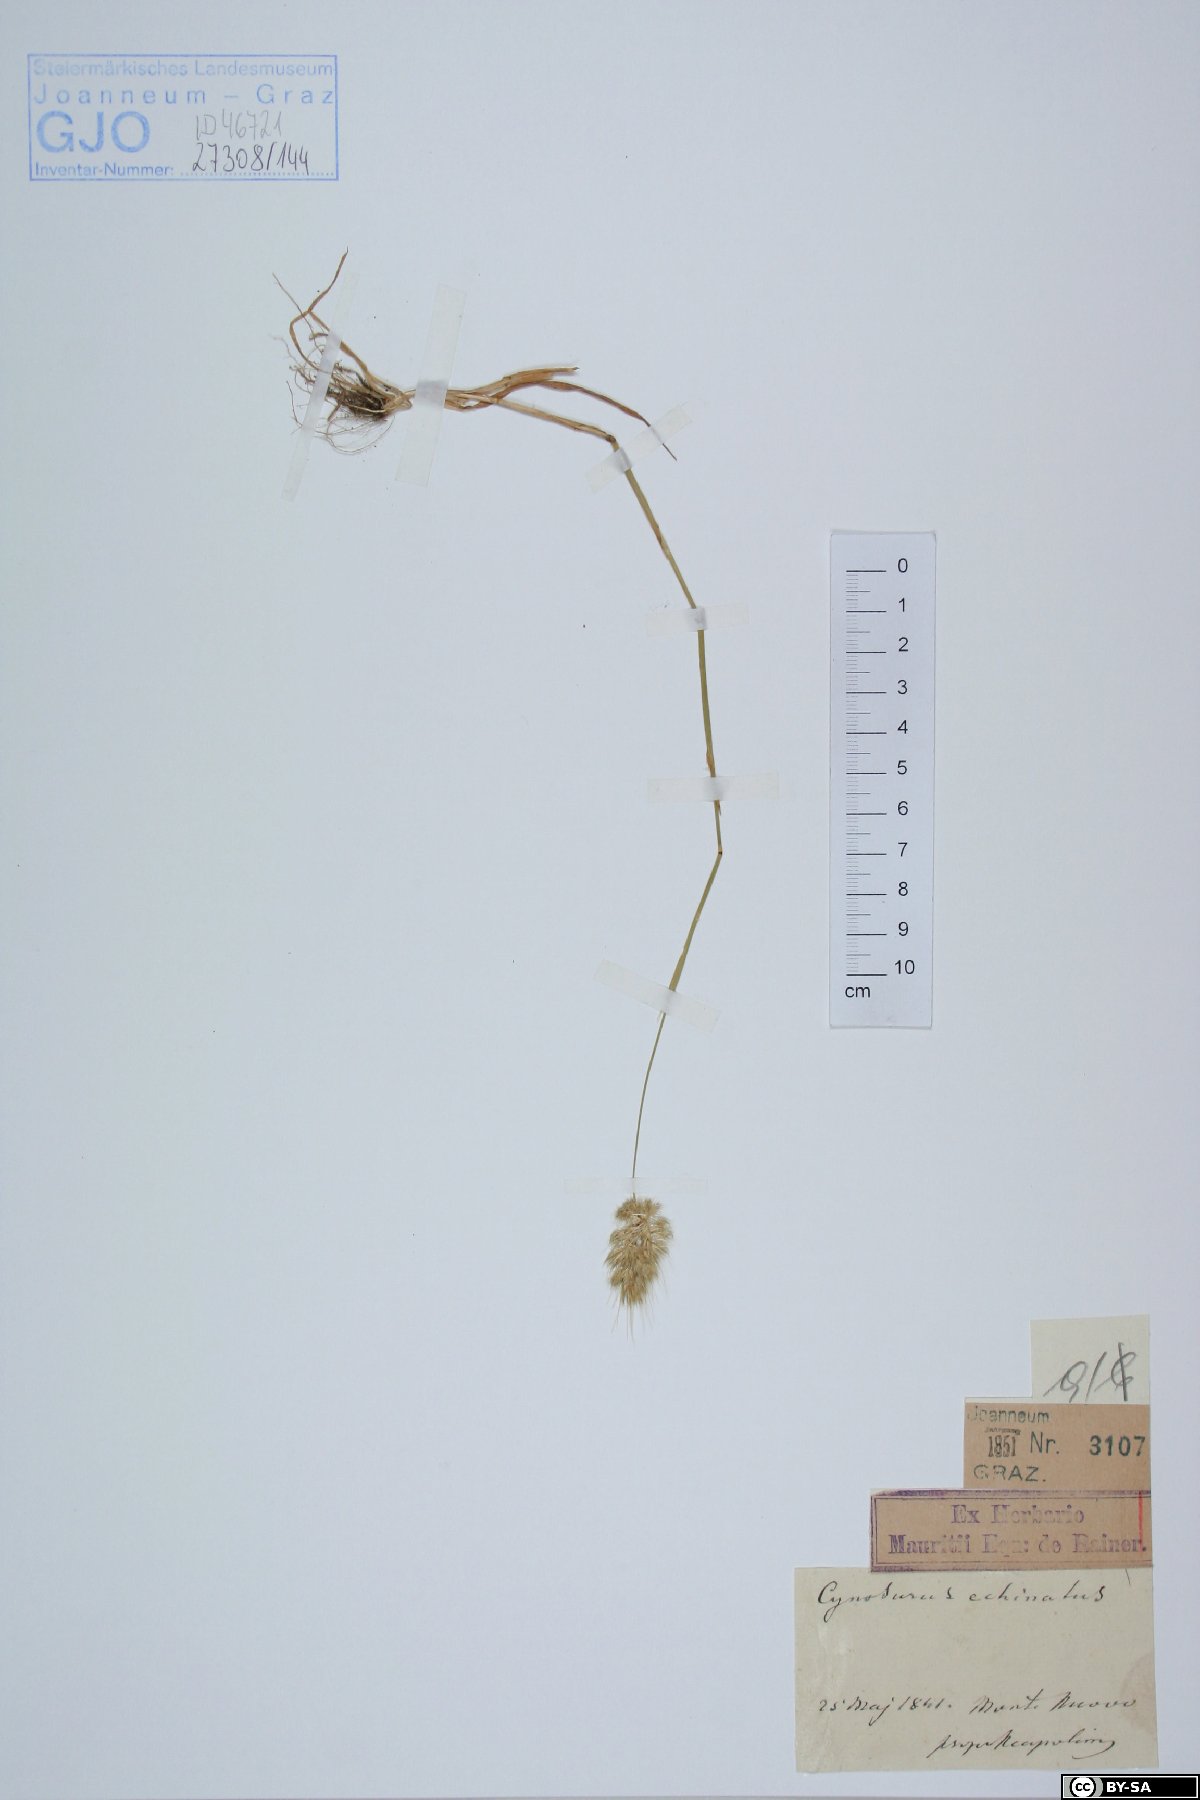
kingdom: Plantae
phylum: Tracheophyta
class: Liliopsida
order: Poales
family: Poaceae
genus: Cynosurus
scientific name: Cynosurus echinatus
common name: Rough dog's-tail
